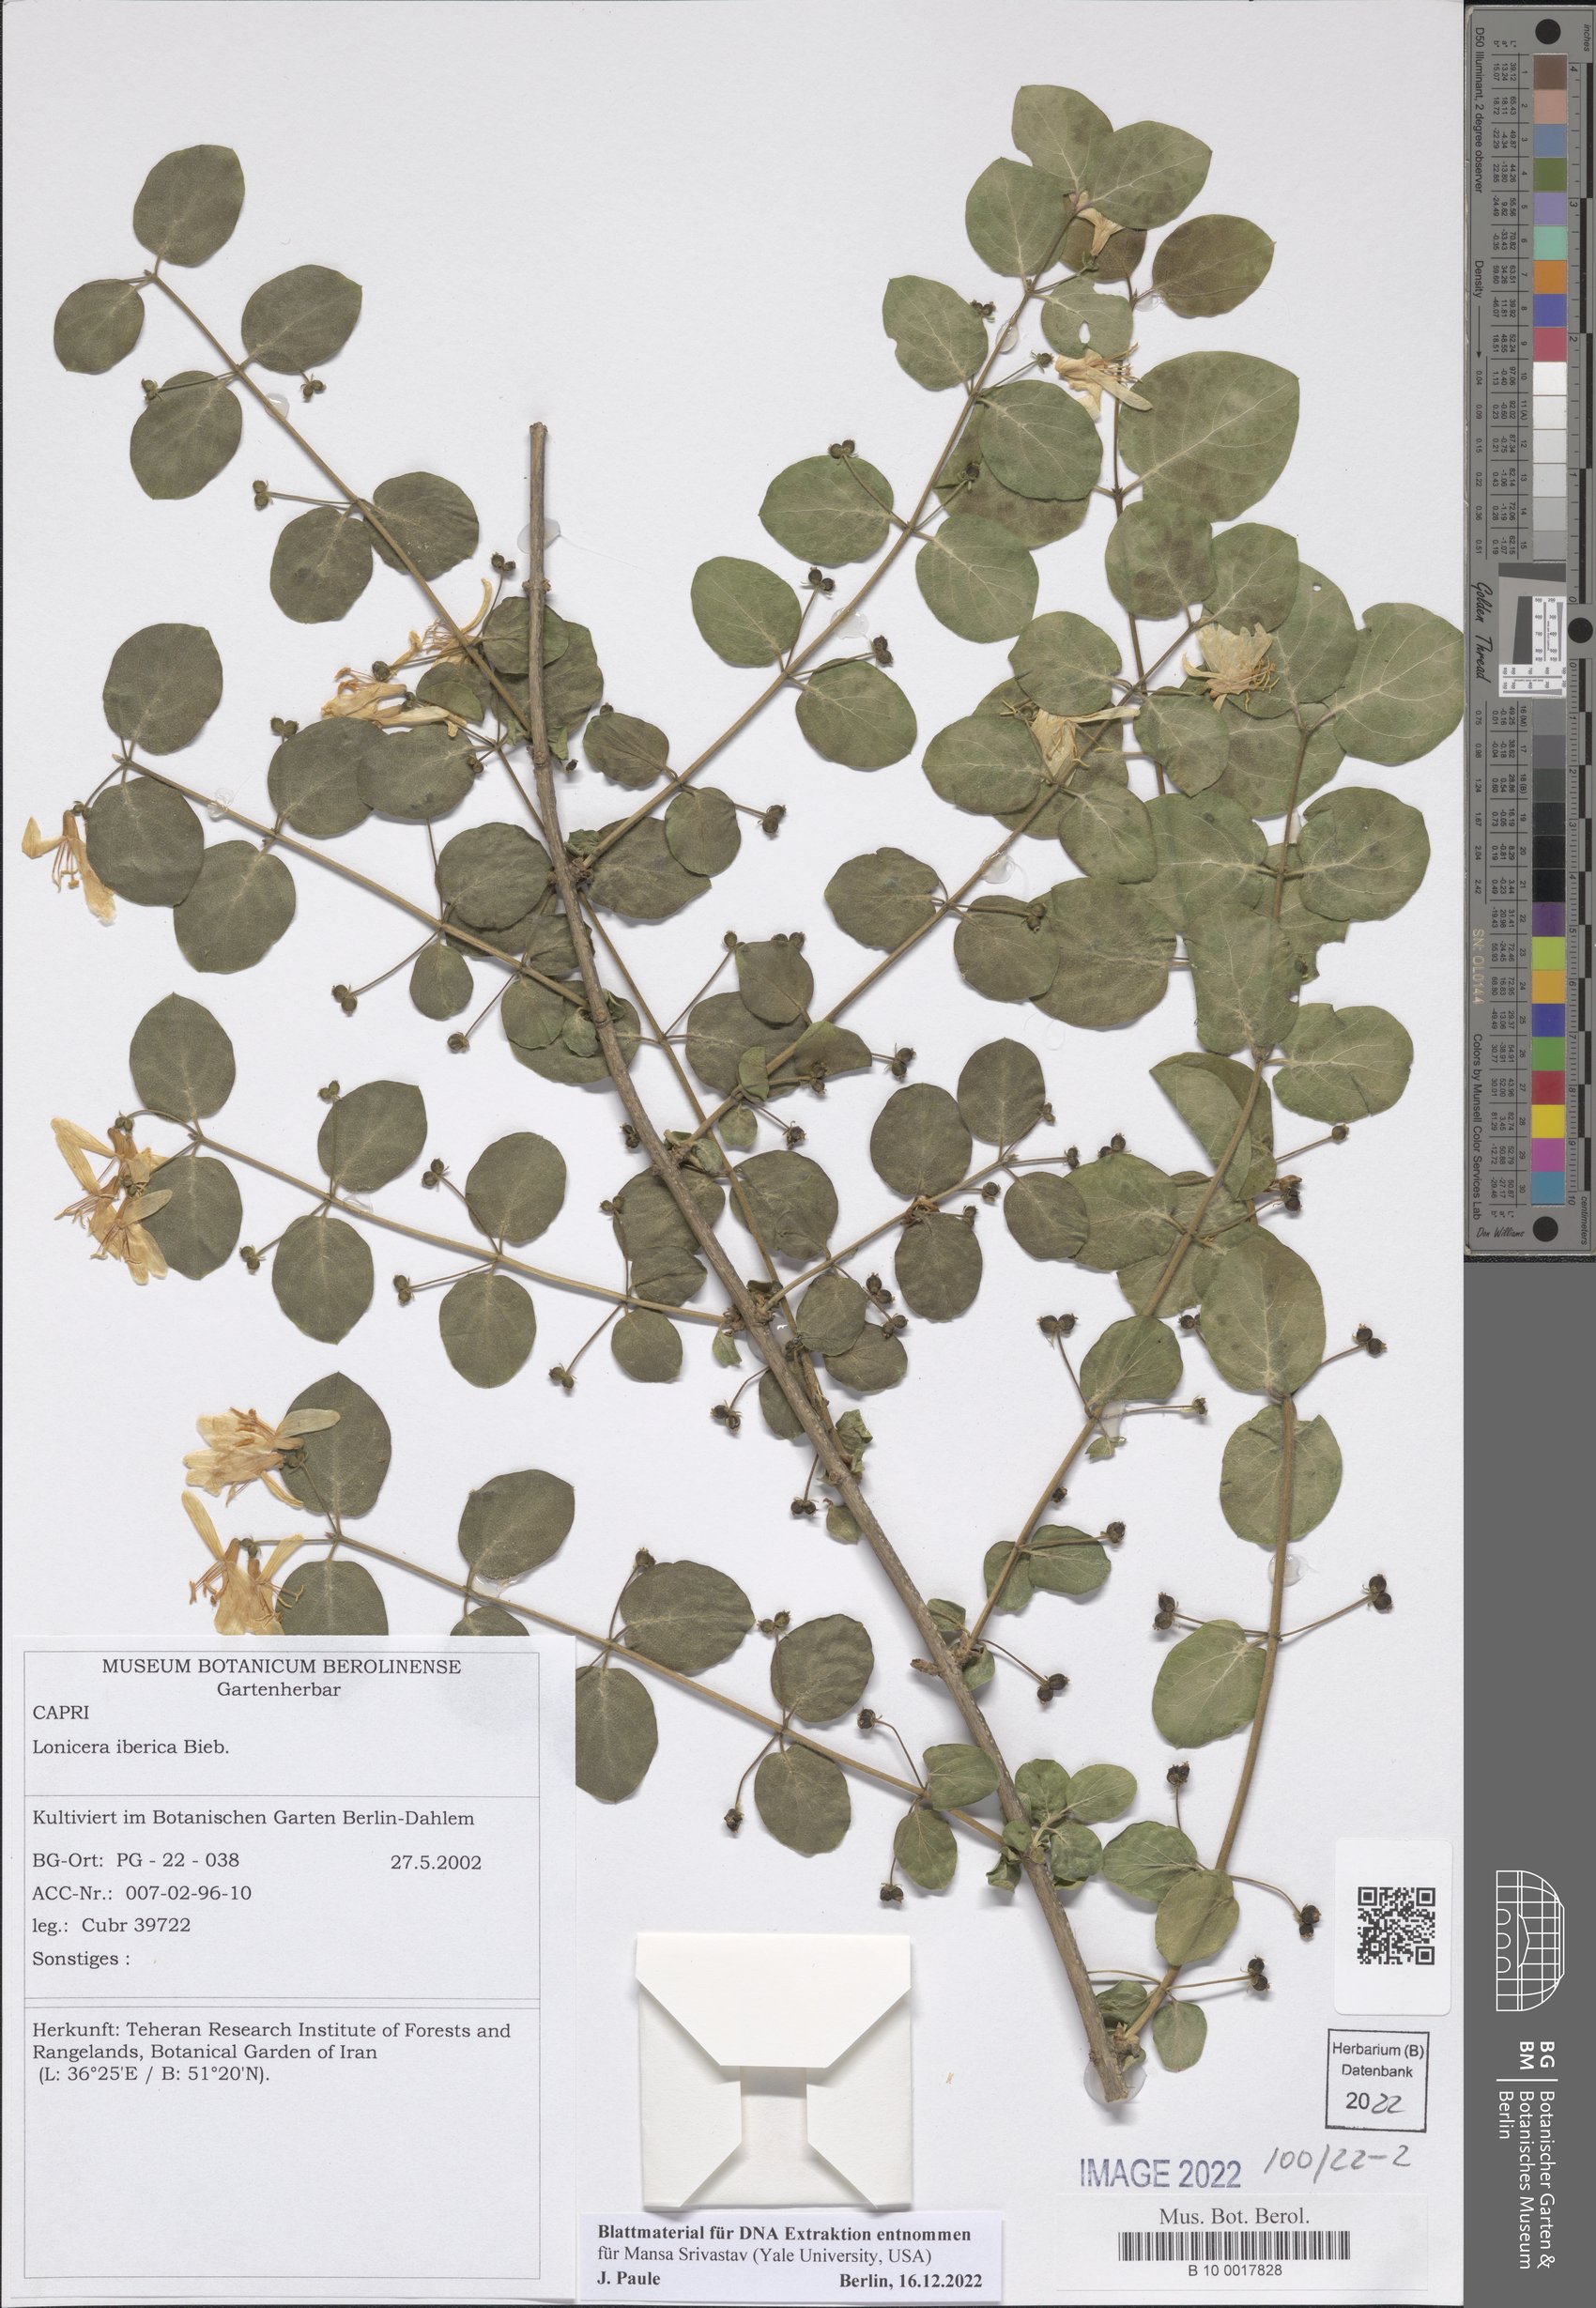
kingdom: Plantae
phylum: Tracheophyta
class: Magnoliopsida
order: Dipsacales
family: Caprifoliaceae
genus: Lonicera
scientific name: Lonicera iberica
